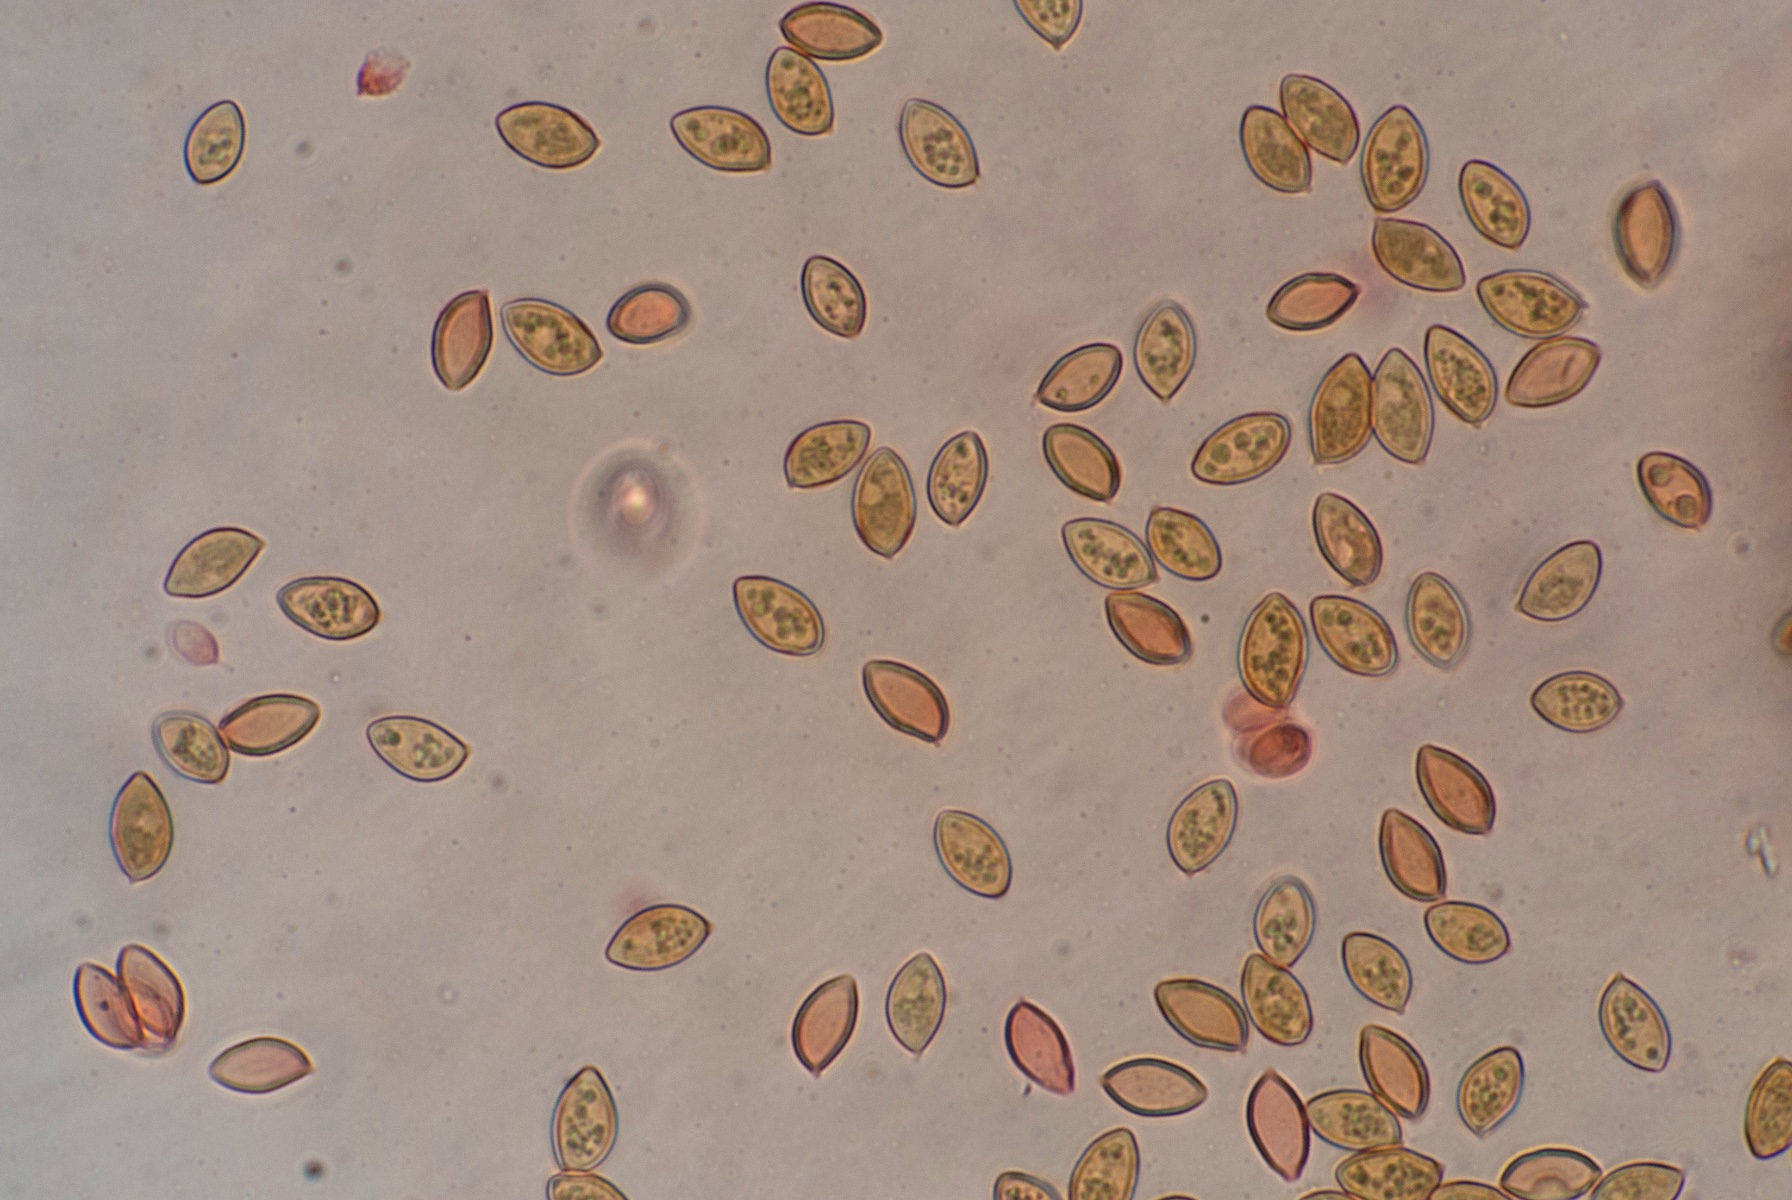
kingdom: Fungi
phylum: Basidiomycota
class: Agaricomycetes
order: Agaricales
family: Hymenogastraceae
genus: Galerina
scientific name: Galerina hypnorum
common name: mos-hjelmhat
